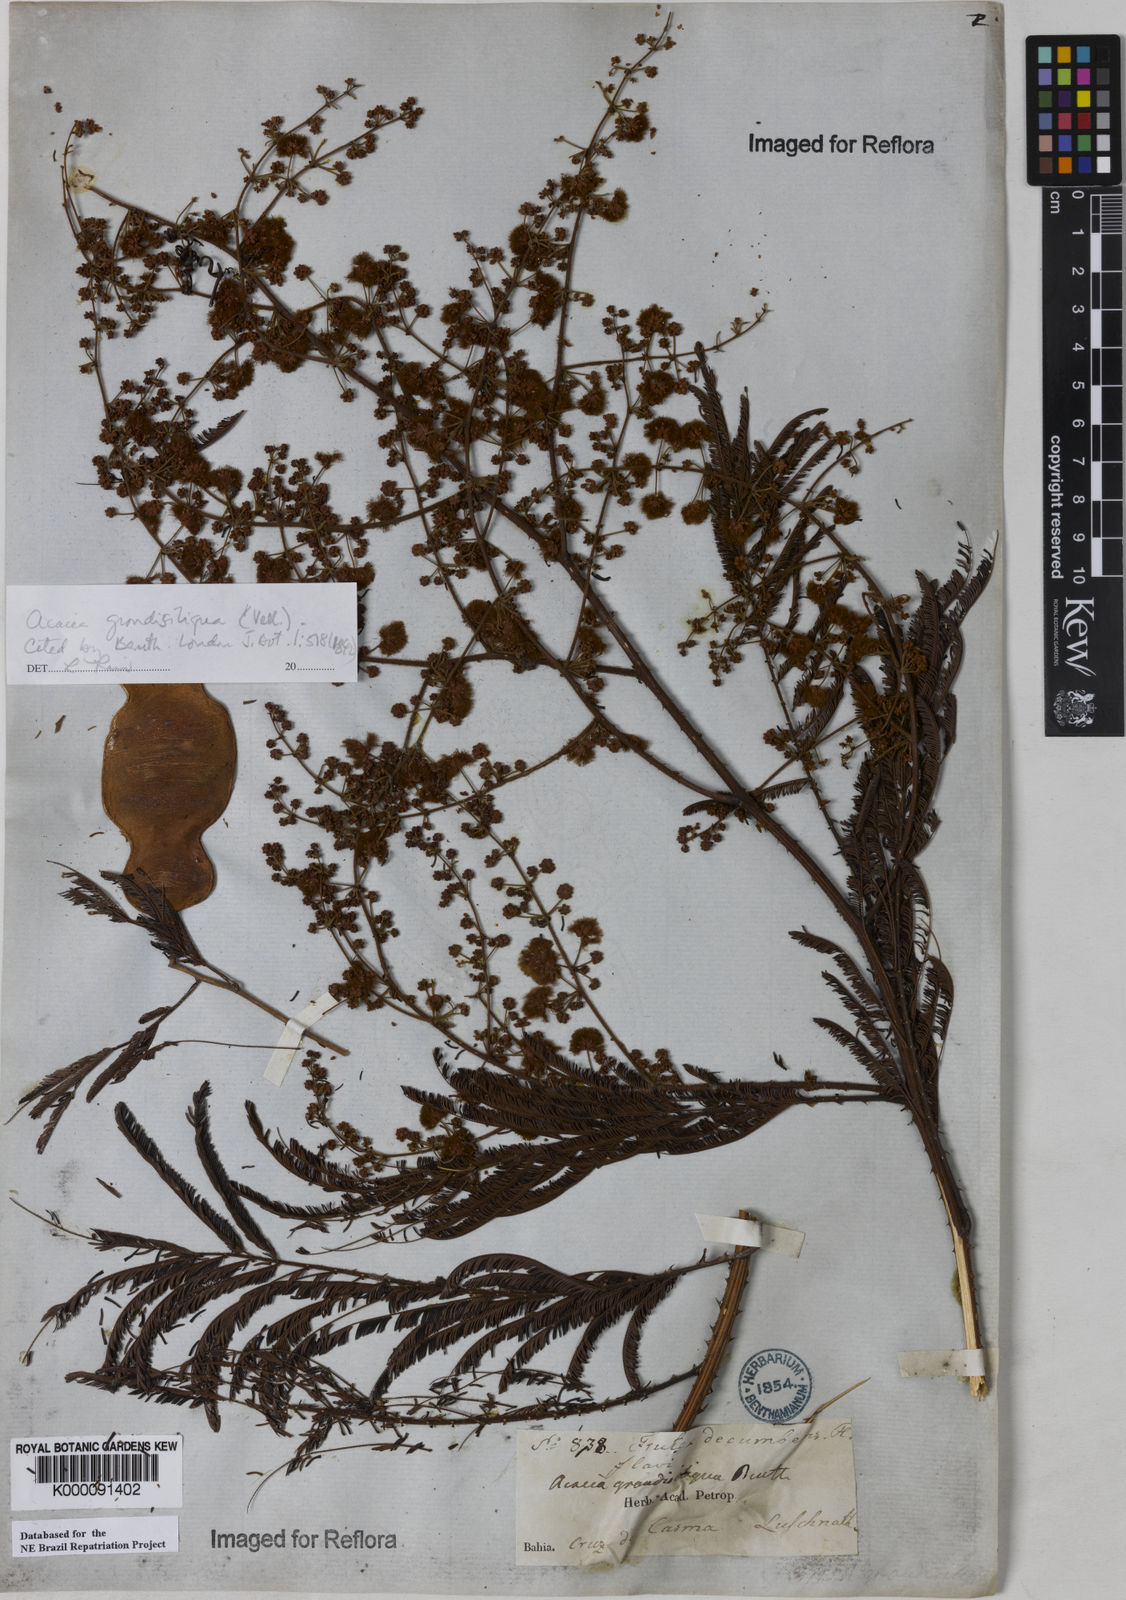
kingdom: Plantae
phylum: Tracheophyta
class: Magnoliopsida
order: Fabales
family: Fabaceae
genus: Senegalia
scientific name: Senegalia tenuifolia
